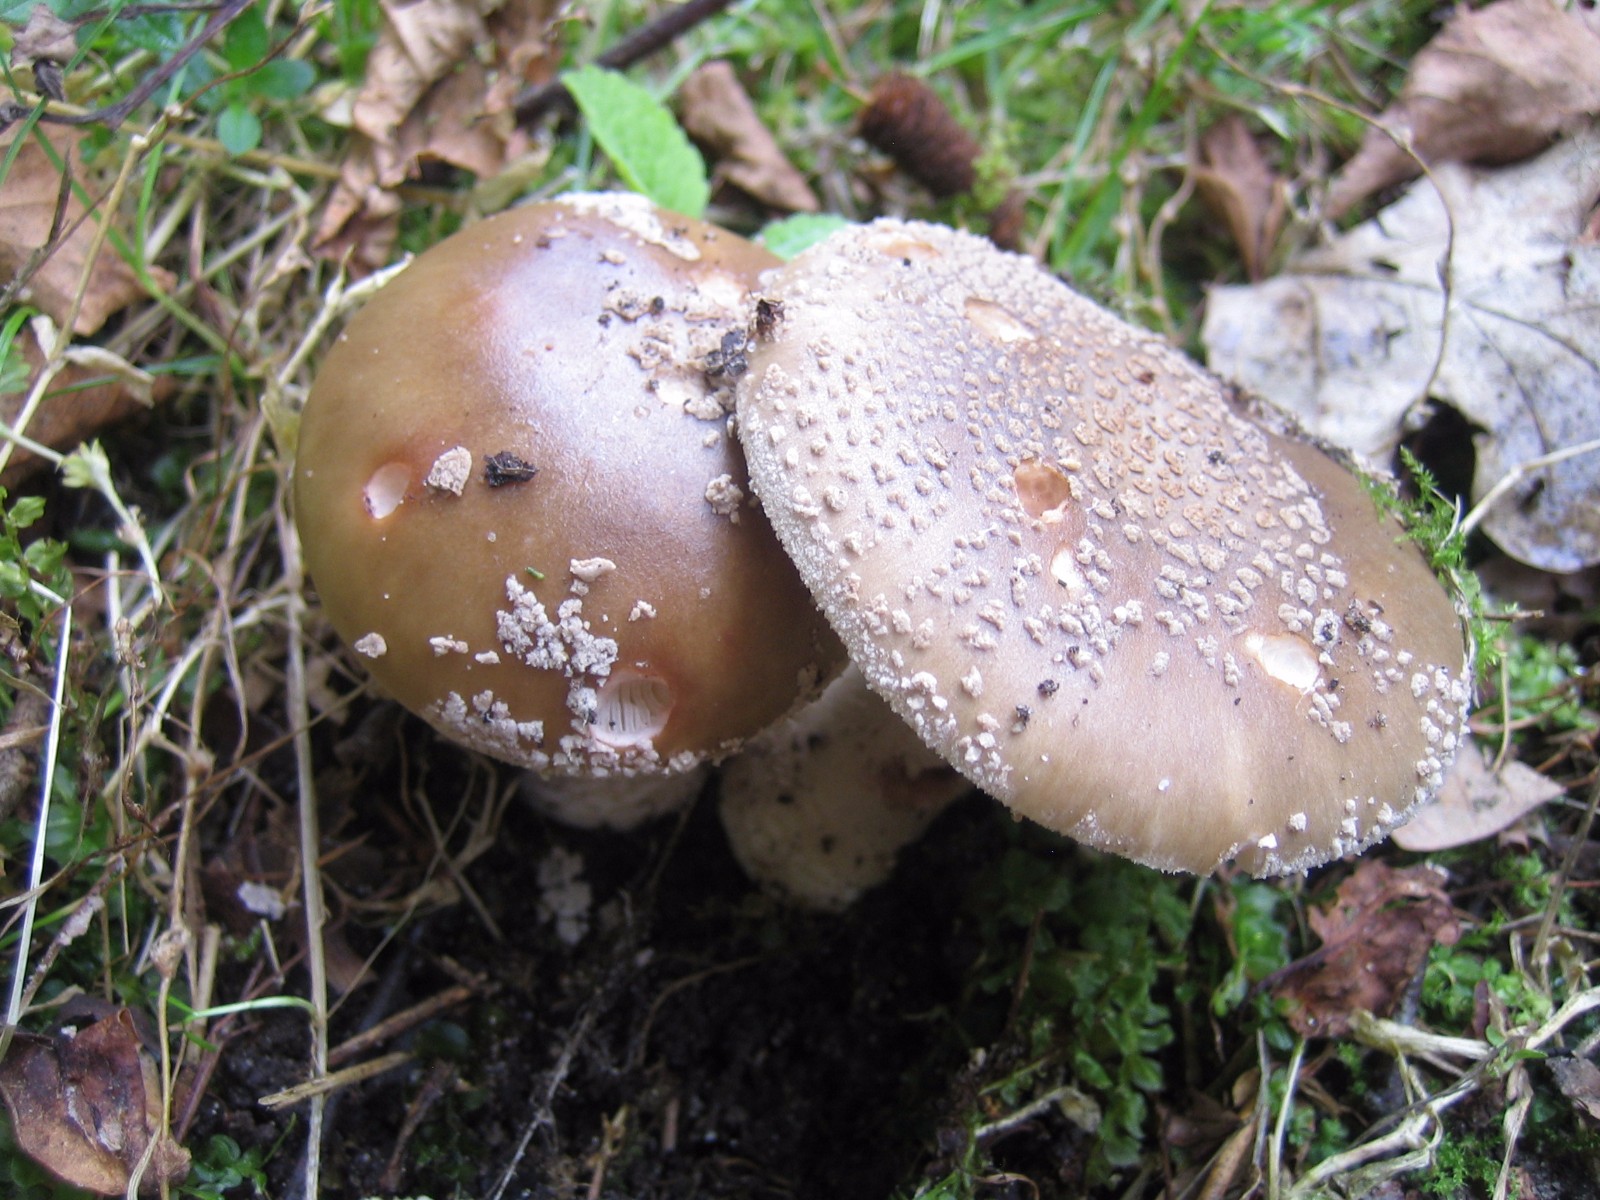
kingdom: Fungi
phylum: Basidiomycota
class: Agaricomycetes
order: Agaricales
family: Amanitaceae
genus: Amanita
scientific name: Amanita rubescens
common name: rødmende fluesvamp
